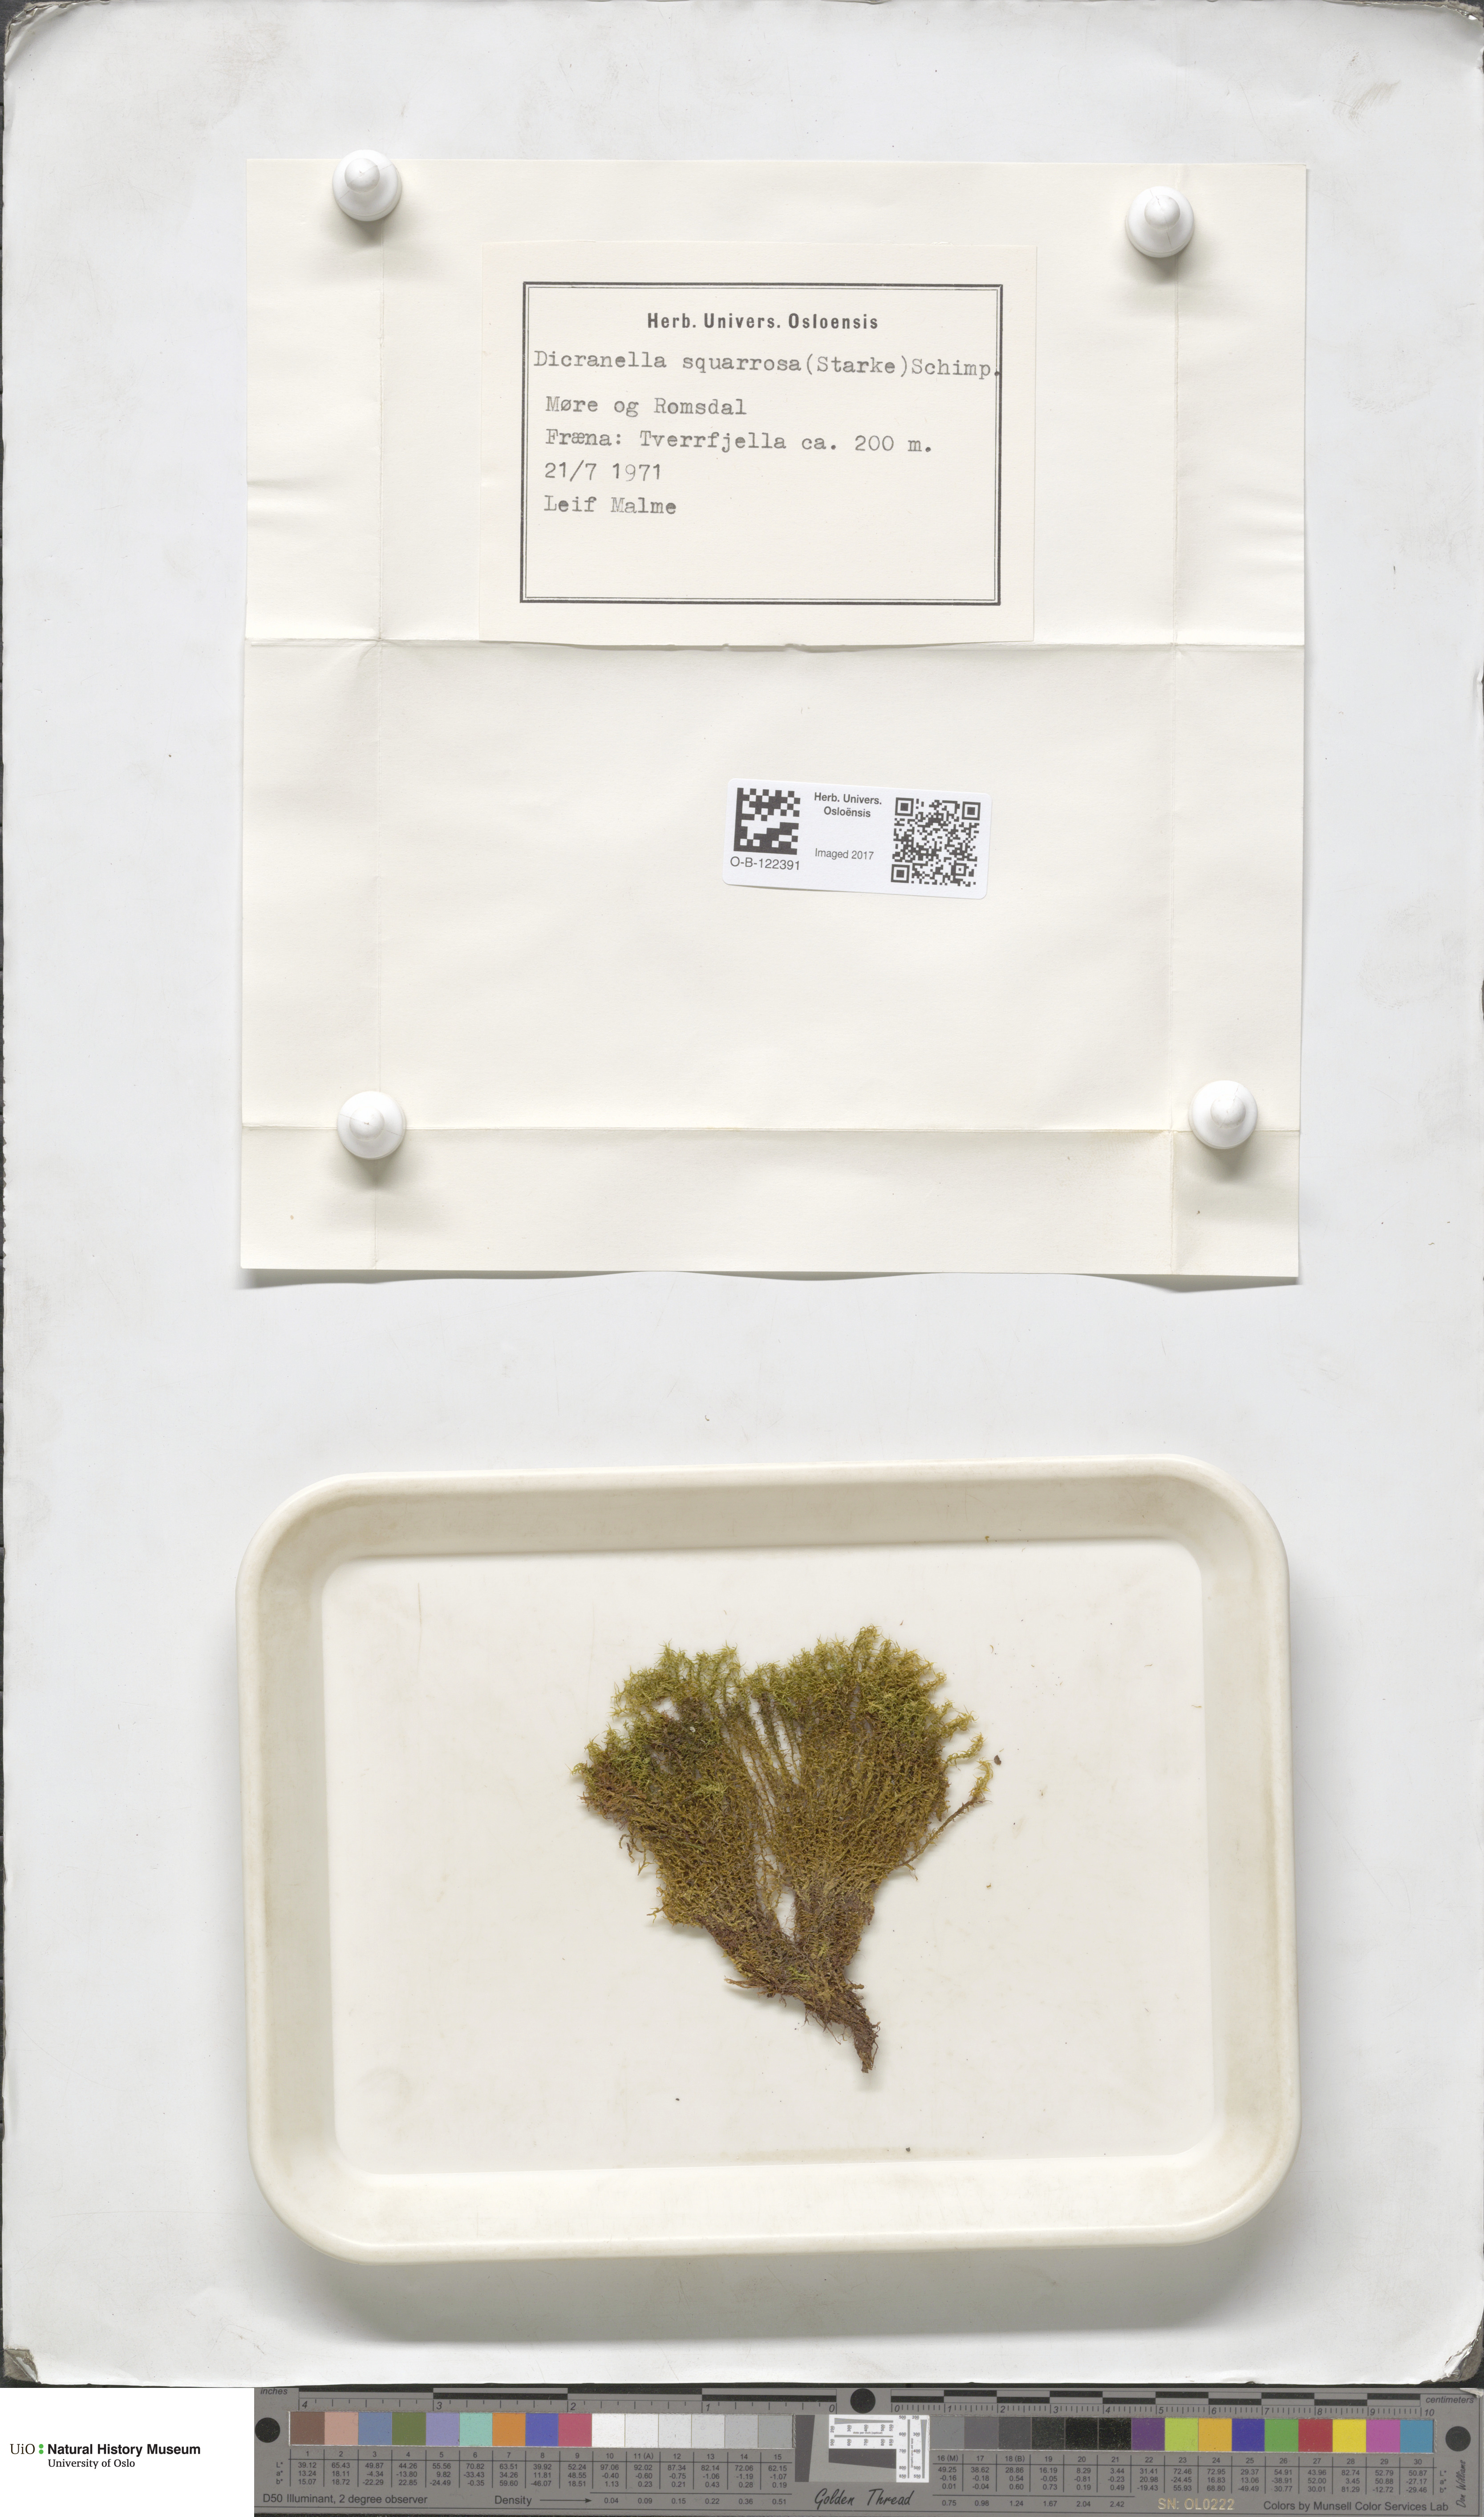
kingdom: Plantae
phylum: Bryophyta
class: Bryopsida
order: Dicranales
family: Aongstroemiaceae
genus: Diobelonella
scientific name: Diobelonella palustris
